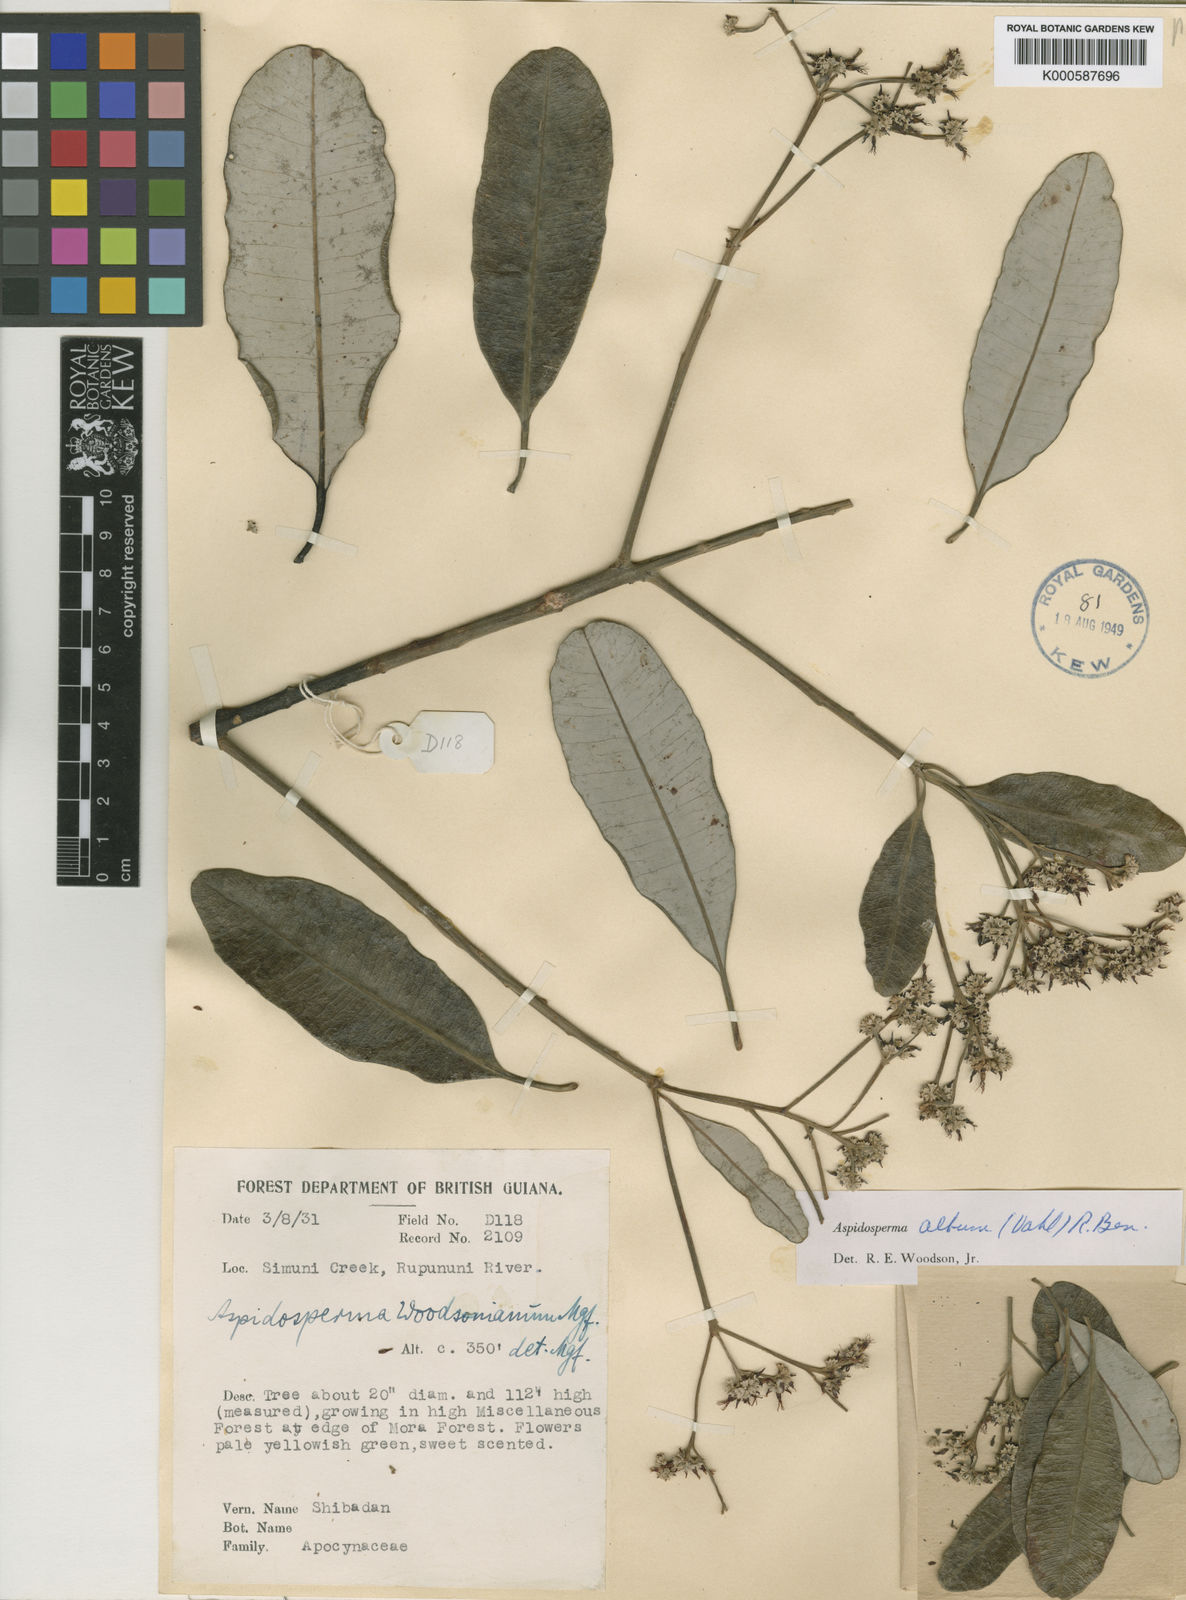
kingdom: Plantae
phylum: Tracheophyta
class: Magnoliopsida
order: Gentianales
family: Apocynaceae
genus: Aspidosperma
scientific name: Aspidosperma album
